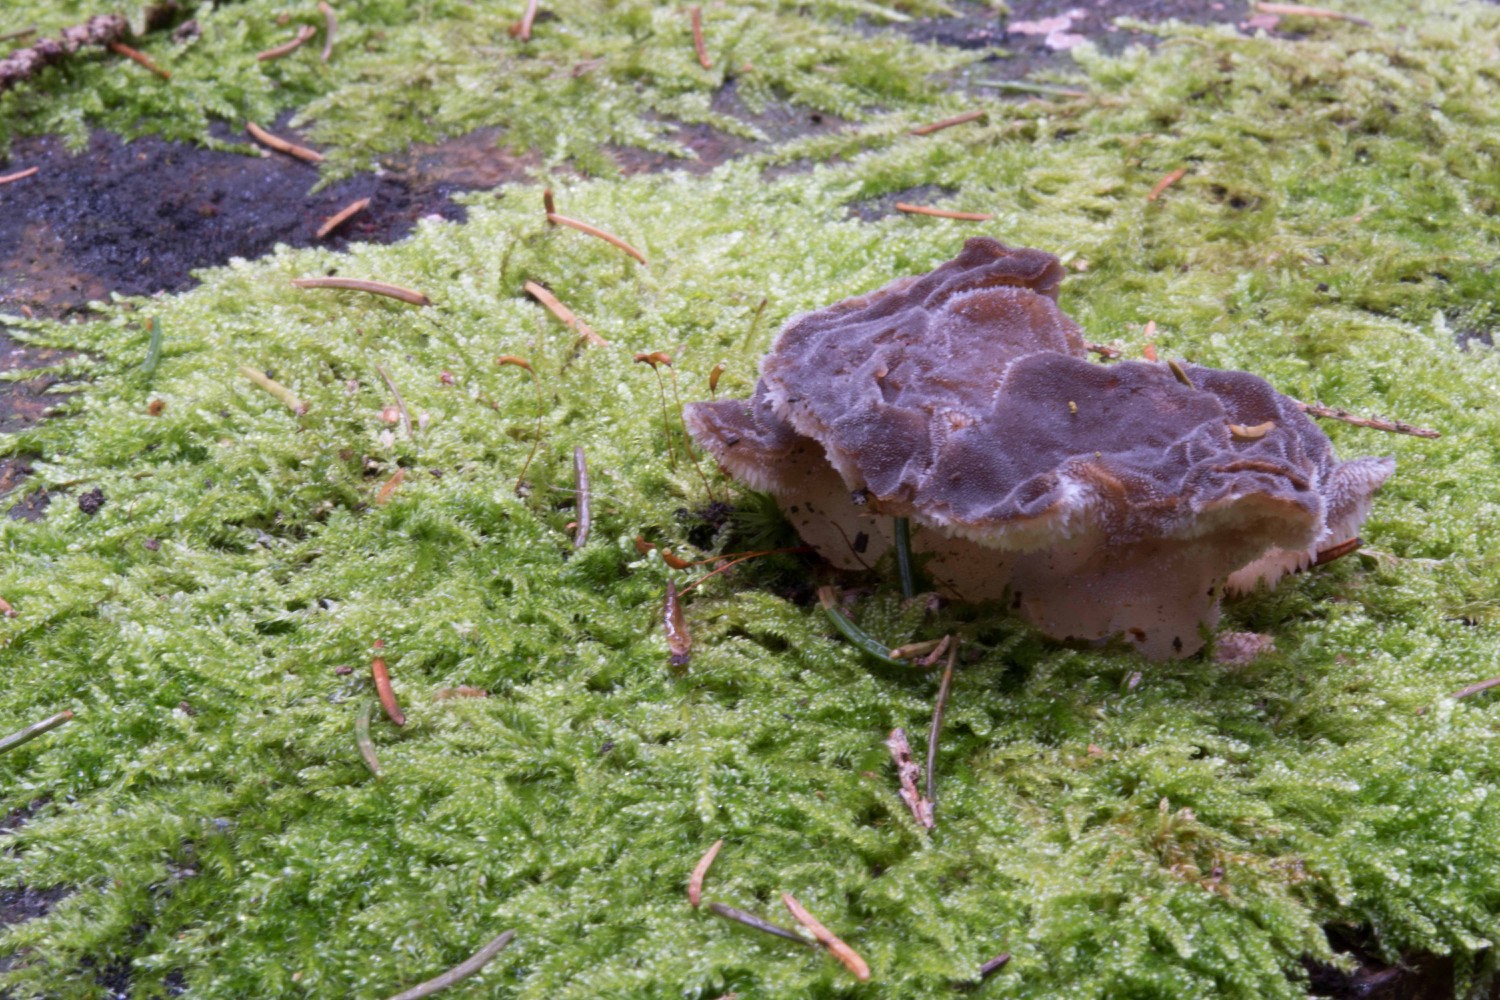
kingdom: Fungi
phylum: Basidiomycota
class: Agaricomycetes
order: Auriculariales
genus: Pseudohydnum
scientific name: Pseudohydnum gelatinosum
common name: bævretand
